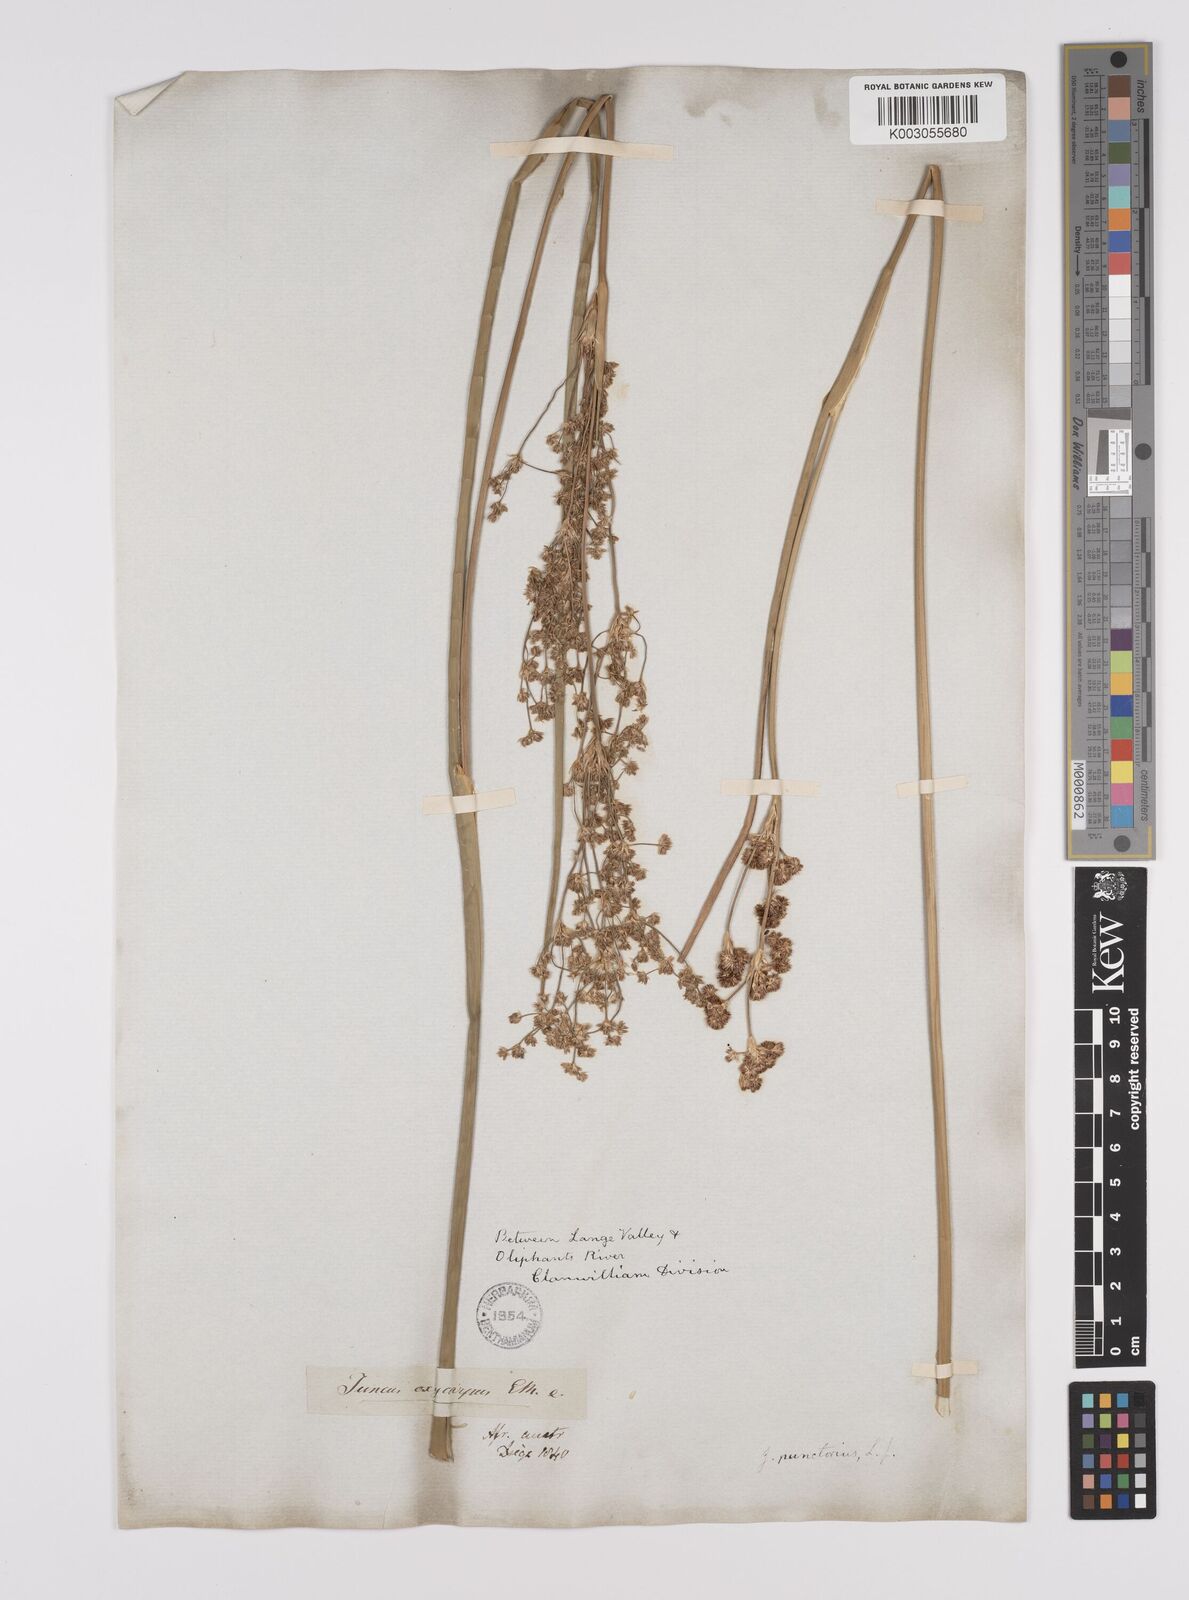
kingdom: Plantae
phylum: Tracheophyta
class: Liliopsida
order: Poales
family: Juncaceae
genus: Juncus
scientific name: Juncus punctorius
